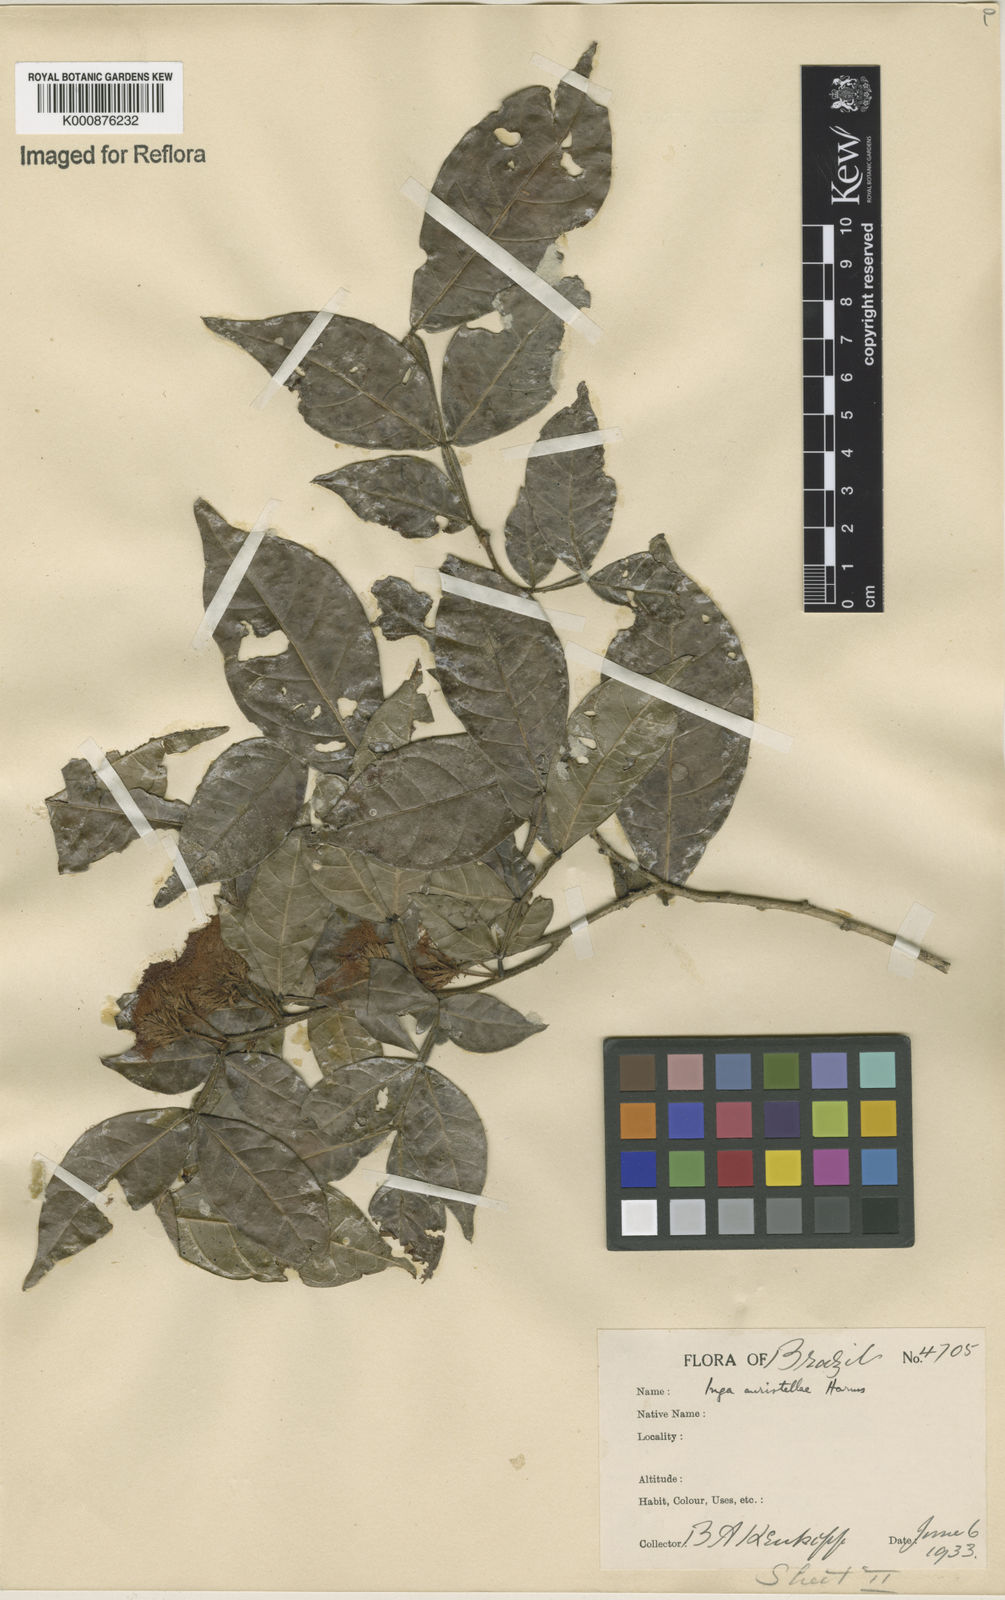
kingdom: Plantae
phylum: Tracheophyta
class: Magnoliopsida
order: Fabales
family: Fabaceae
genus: Inga
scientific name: Inga auristellae
